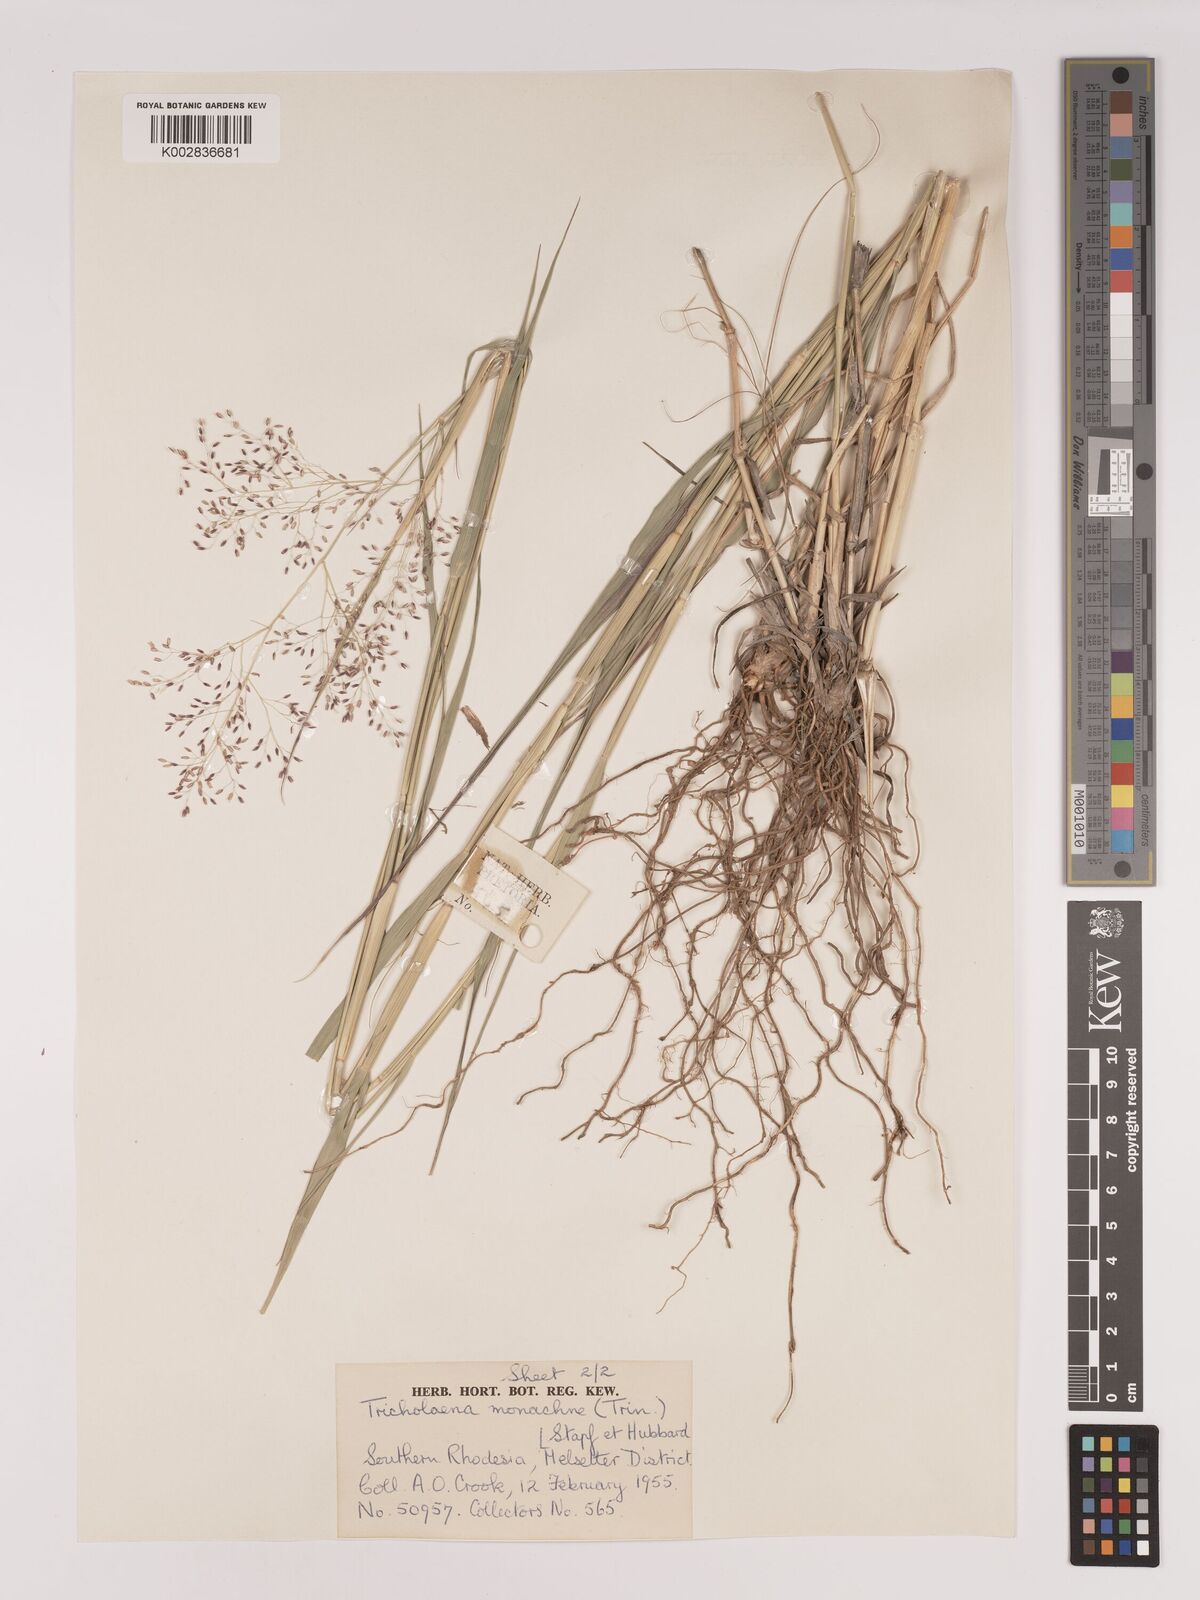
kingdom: Plantae
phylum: Tracheophyta
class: Liliopsida
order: Poales
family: Poaceae
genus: Tricholaena
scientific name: Tricholaena monachne
